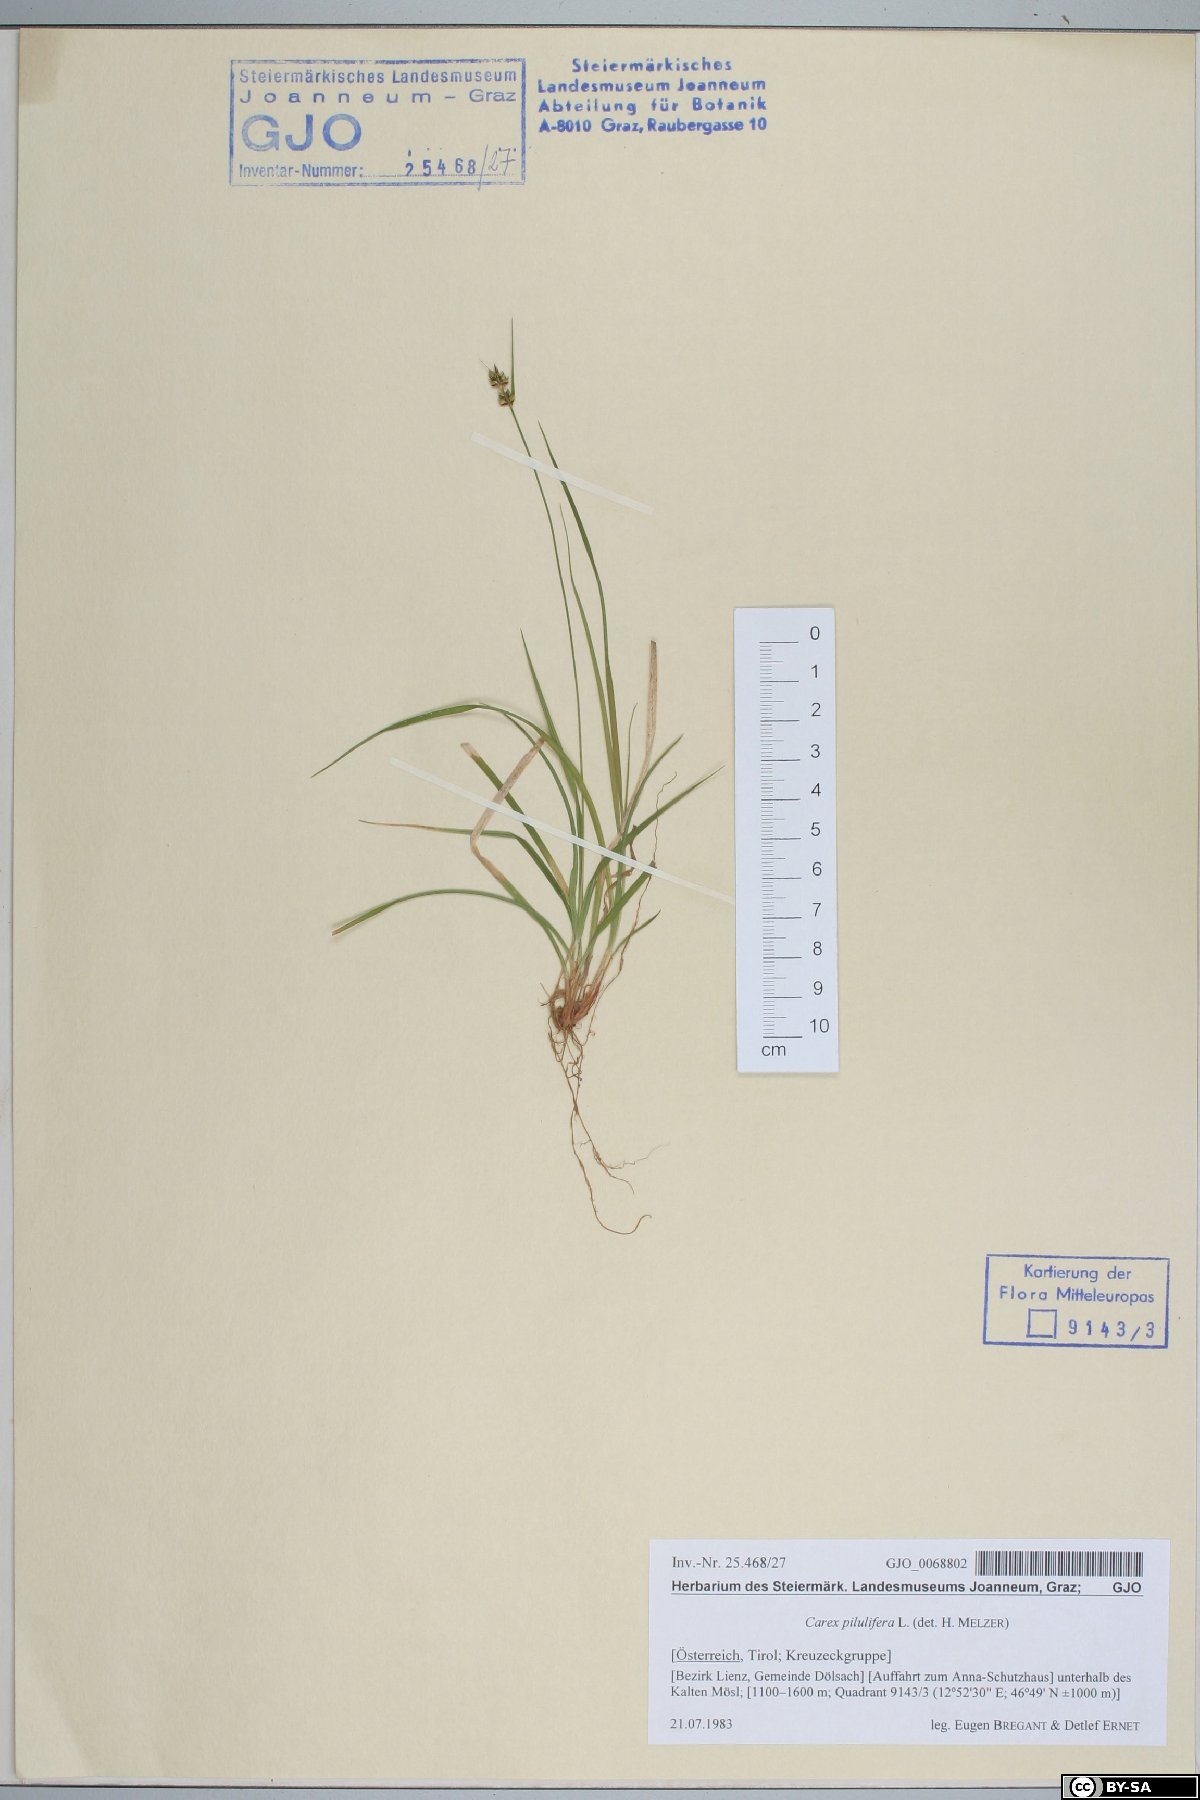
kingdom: Plantae
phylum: Tracheophyta
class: Liliopsida
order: Poales
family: Cyperaceae
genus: Carex
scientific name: Carex pilulifera
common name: Pill sedge
